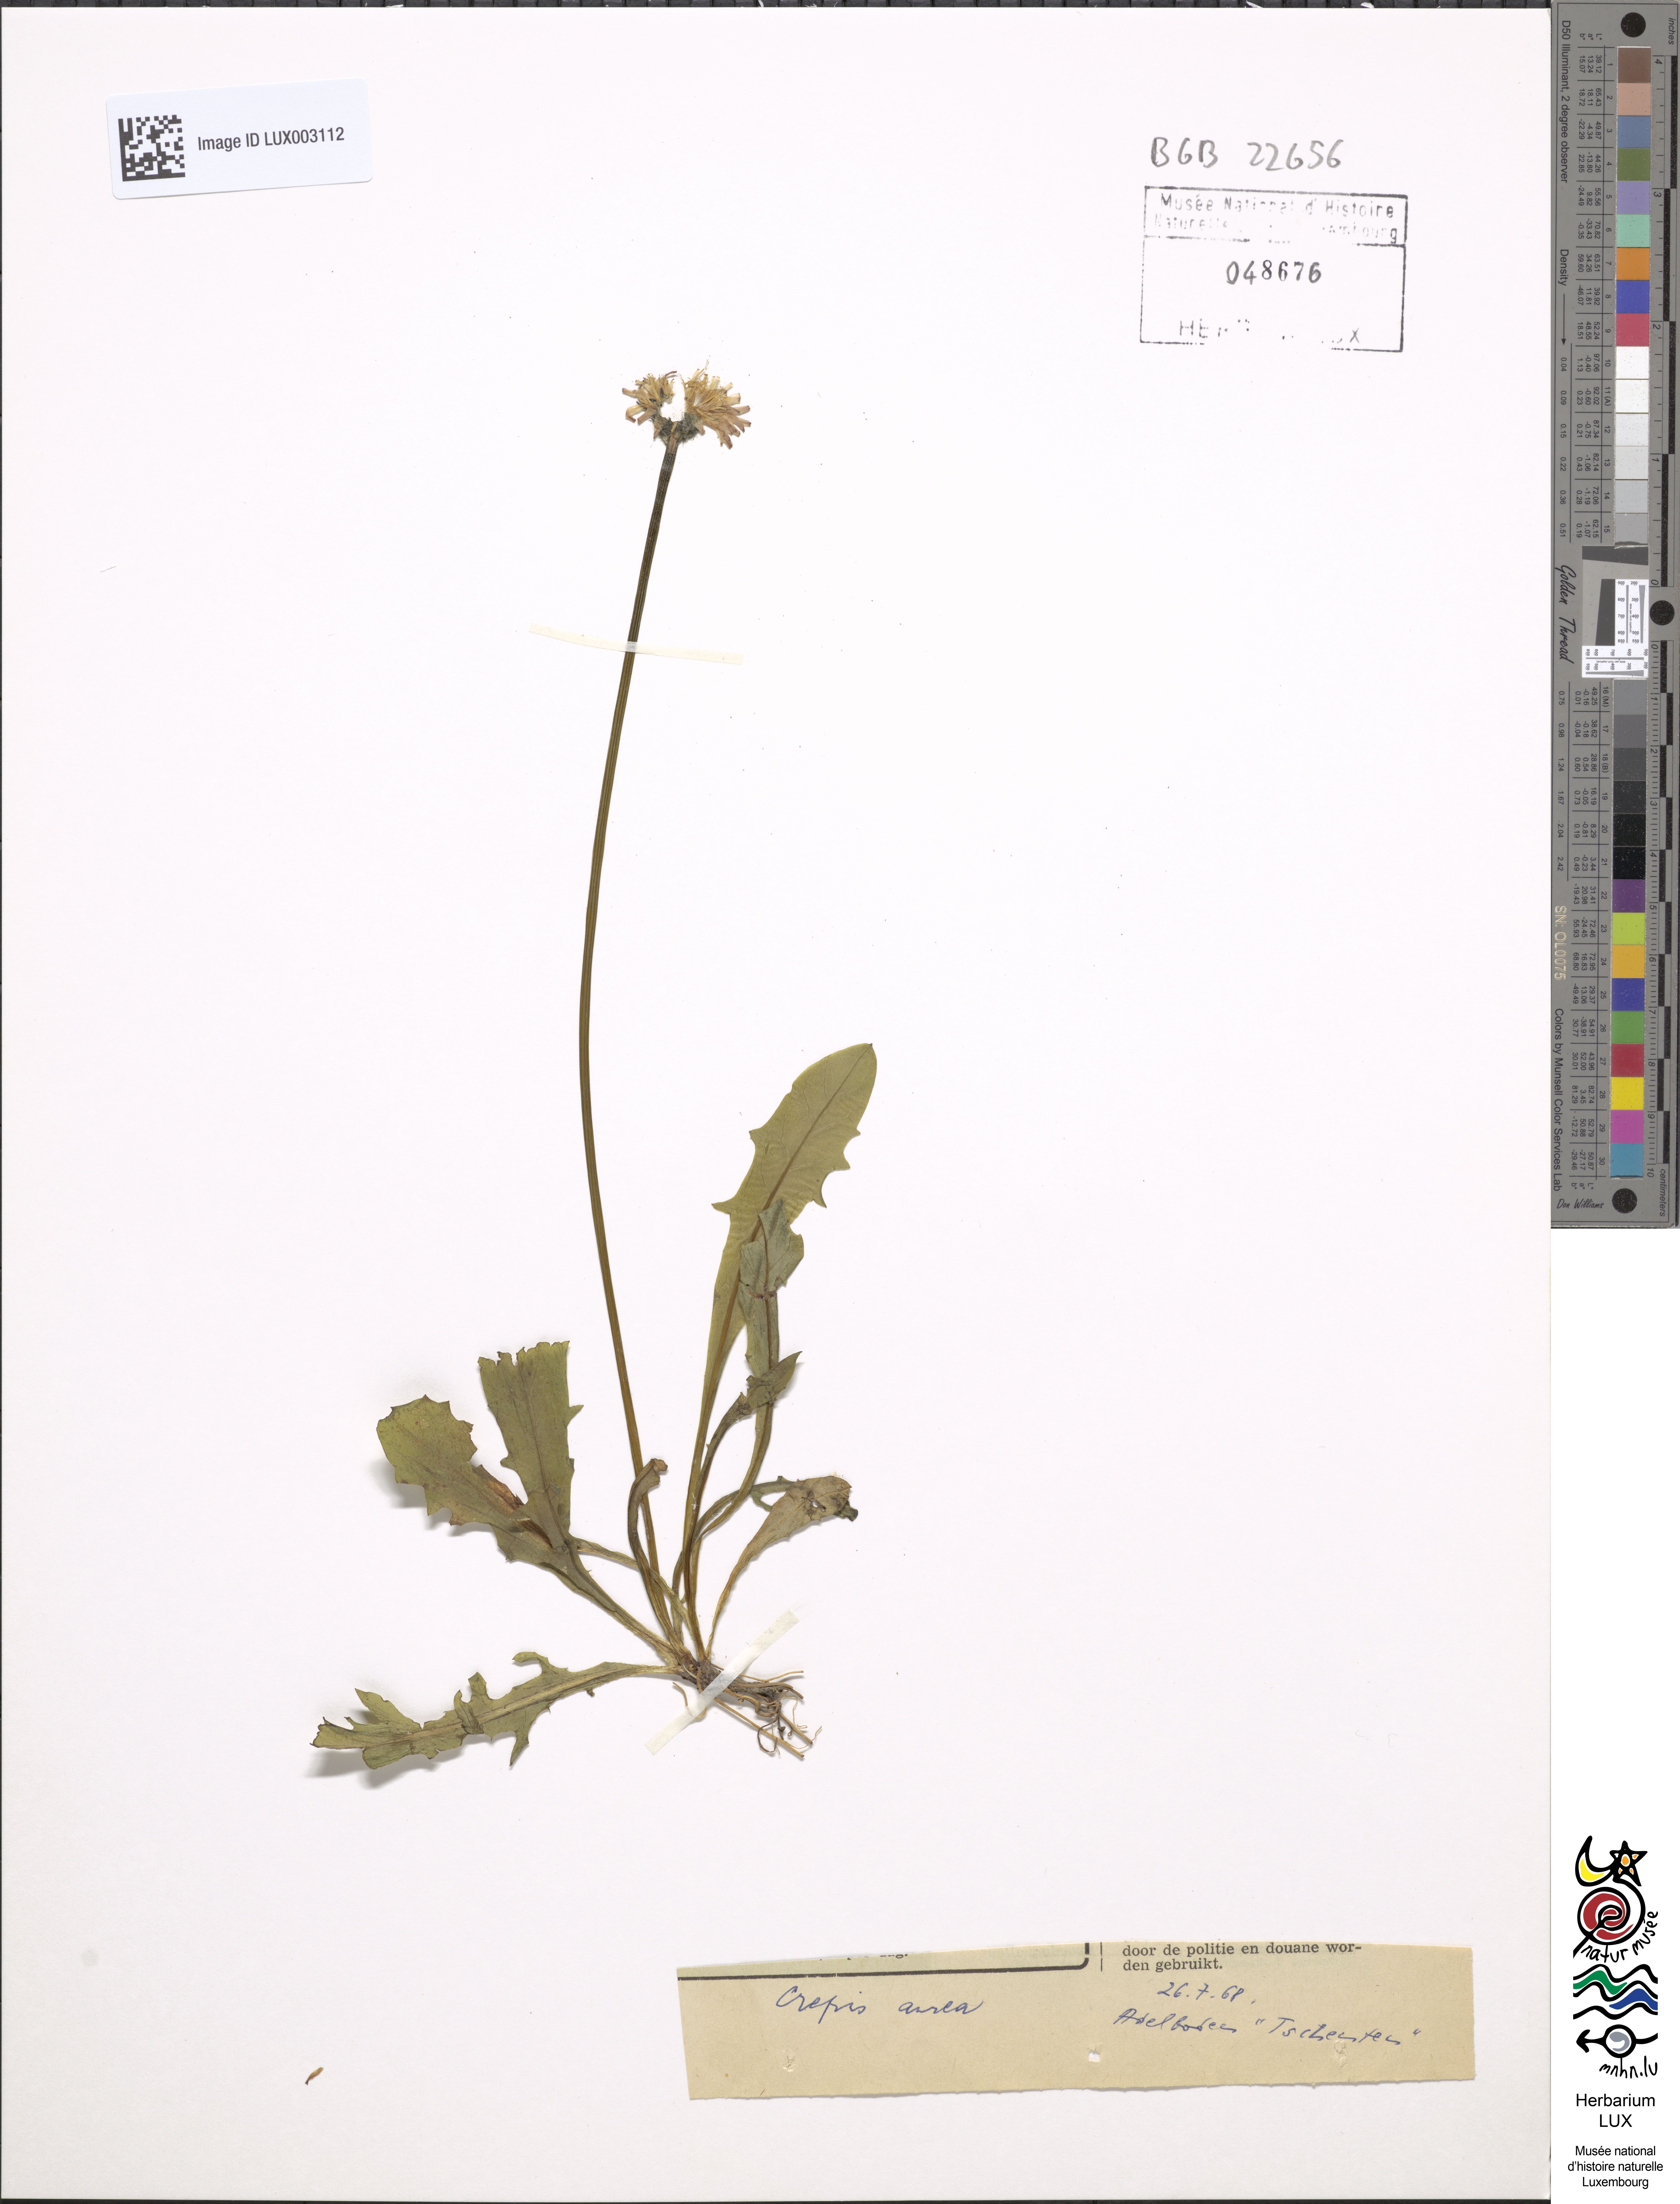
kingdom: Plantae
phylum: Tracheophyta
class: Magnoliopsida
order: Asterales
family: Asteraceae
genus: Crepis
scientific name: Crepis aurea
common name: Golden hawk's-beard
